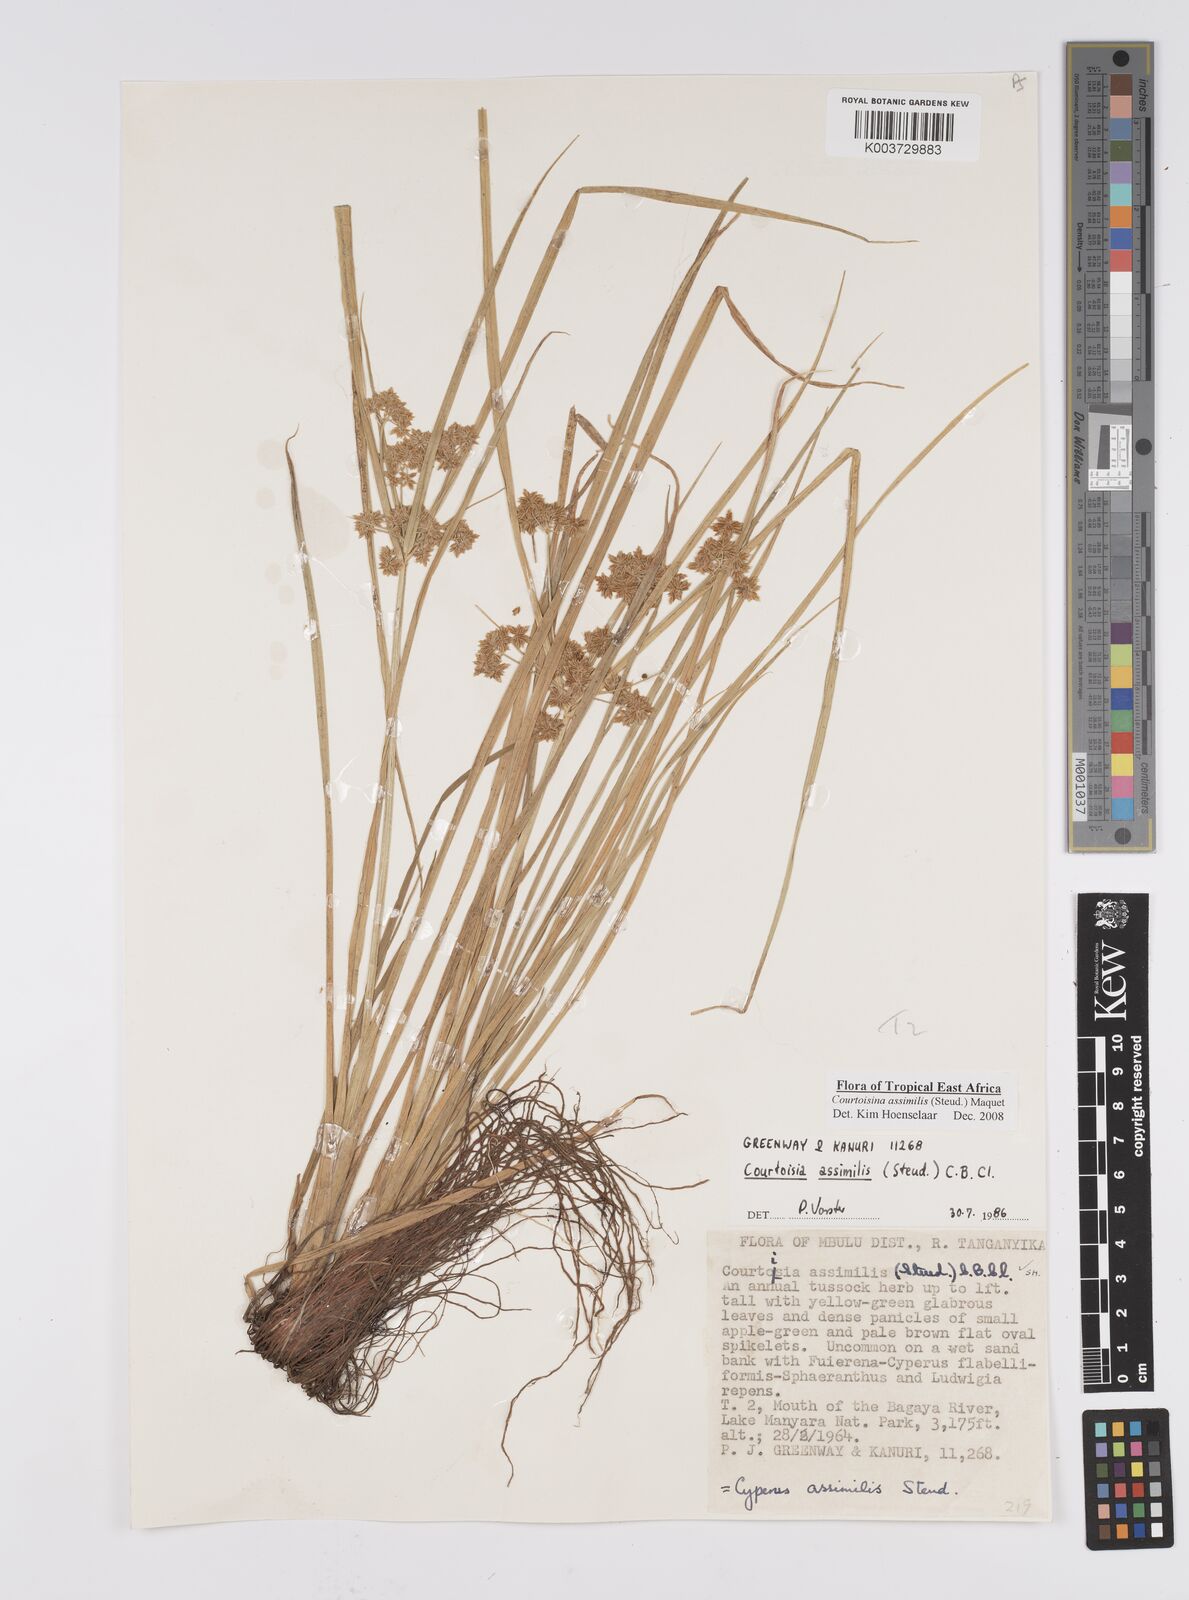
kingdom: Plantae
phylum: Tracheophyta
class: Liliopsida
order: Poales
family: Cyperaceae
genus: Cyperus
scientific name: Cyperus assimilis
